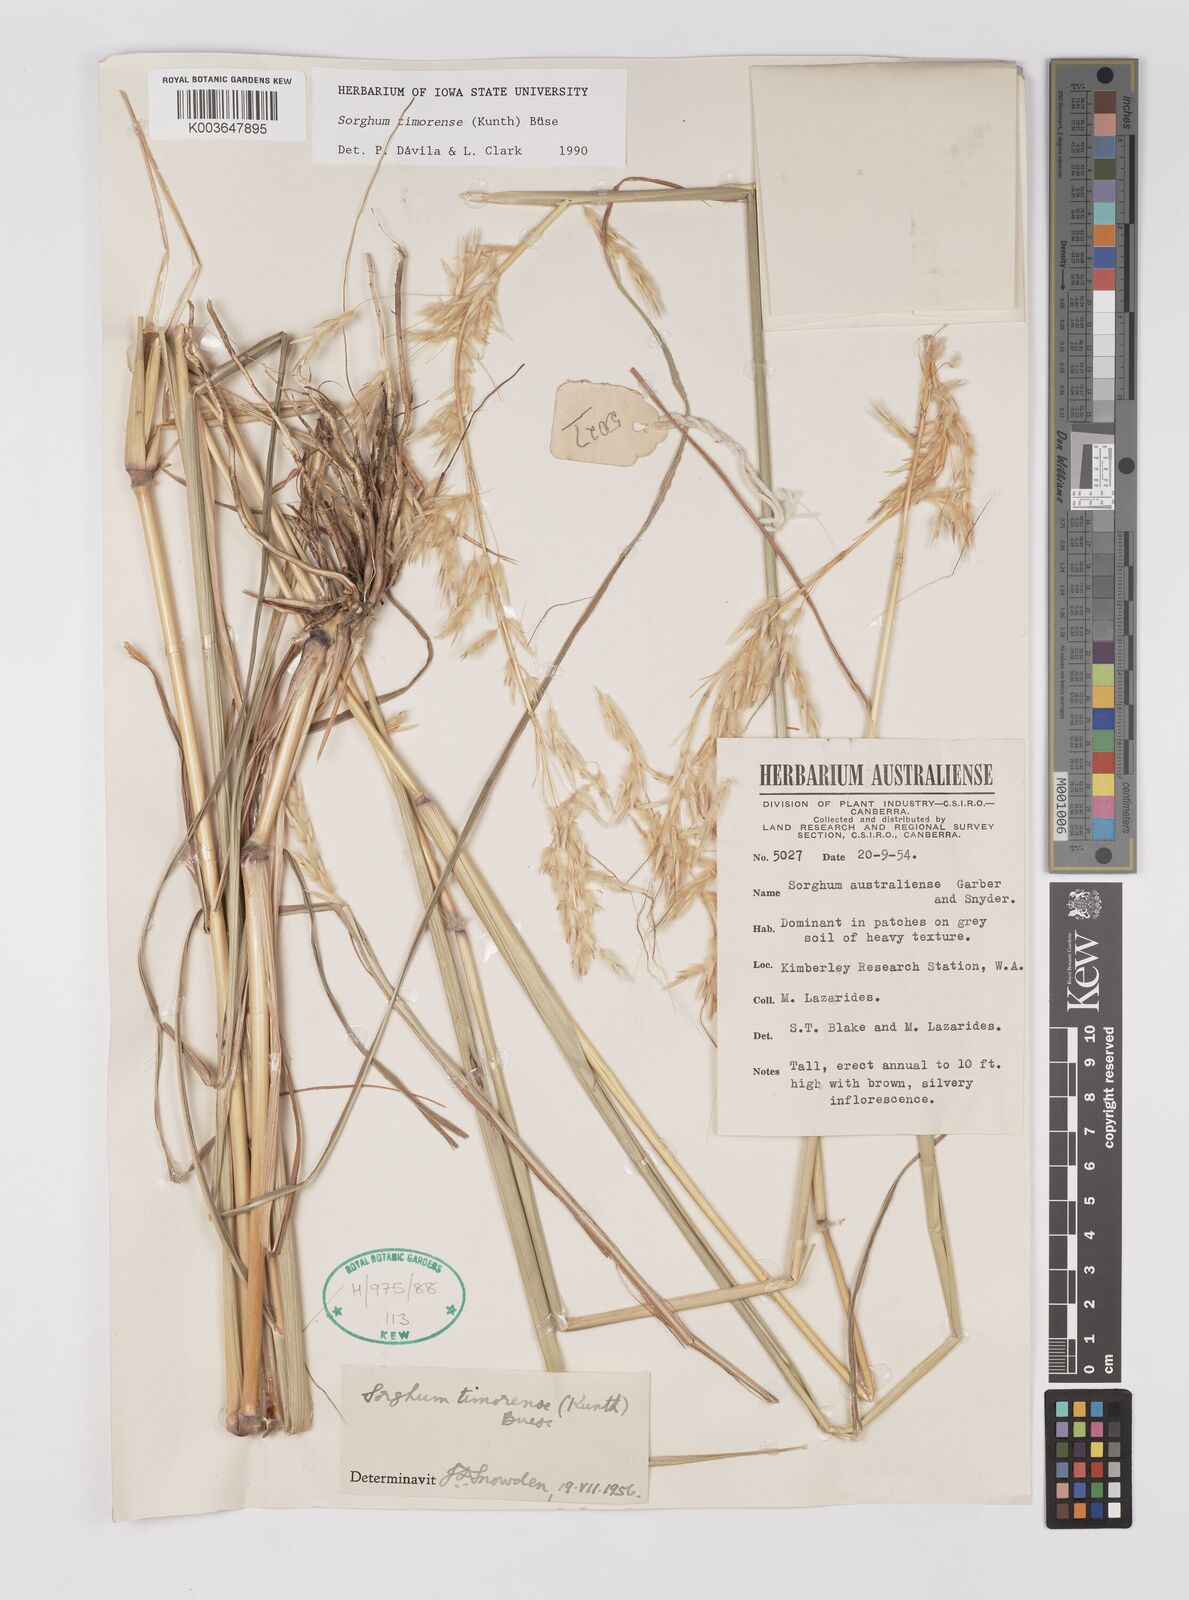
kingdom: Plantae
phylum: Tracheophyta
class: Liliopsida
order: Poales
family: Poaceae
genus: Sarga
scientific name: Sarga timorensis
